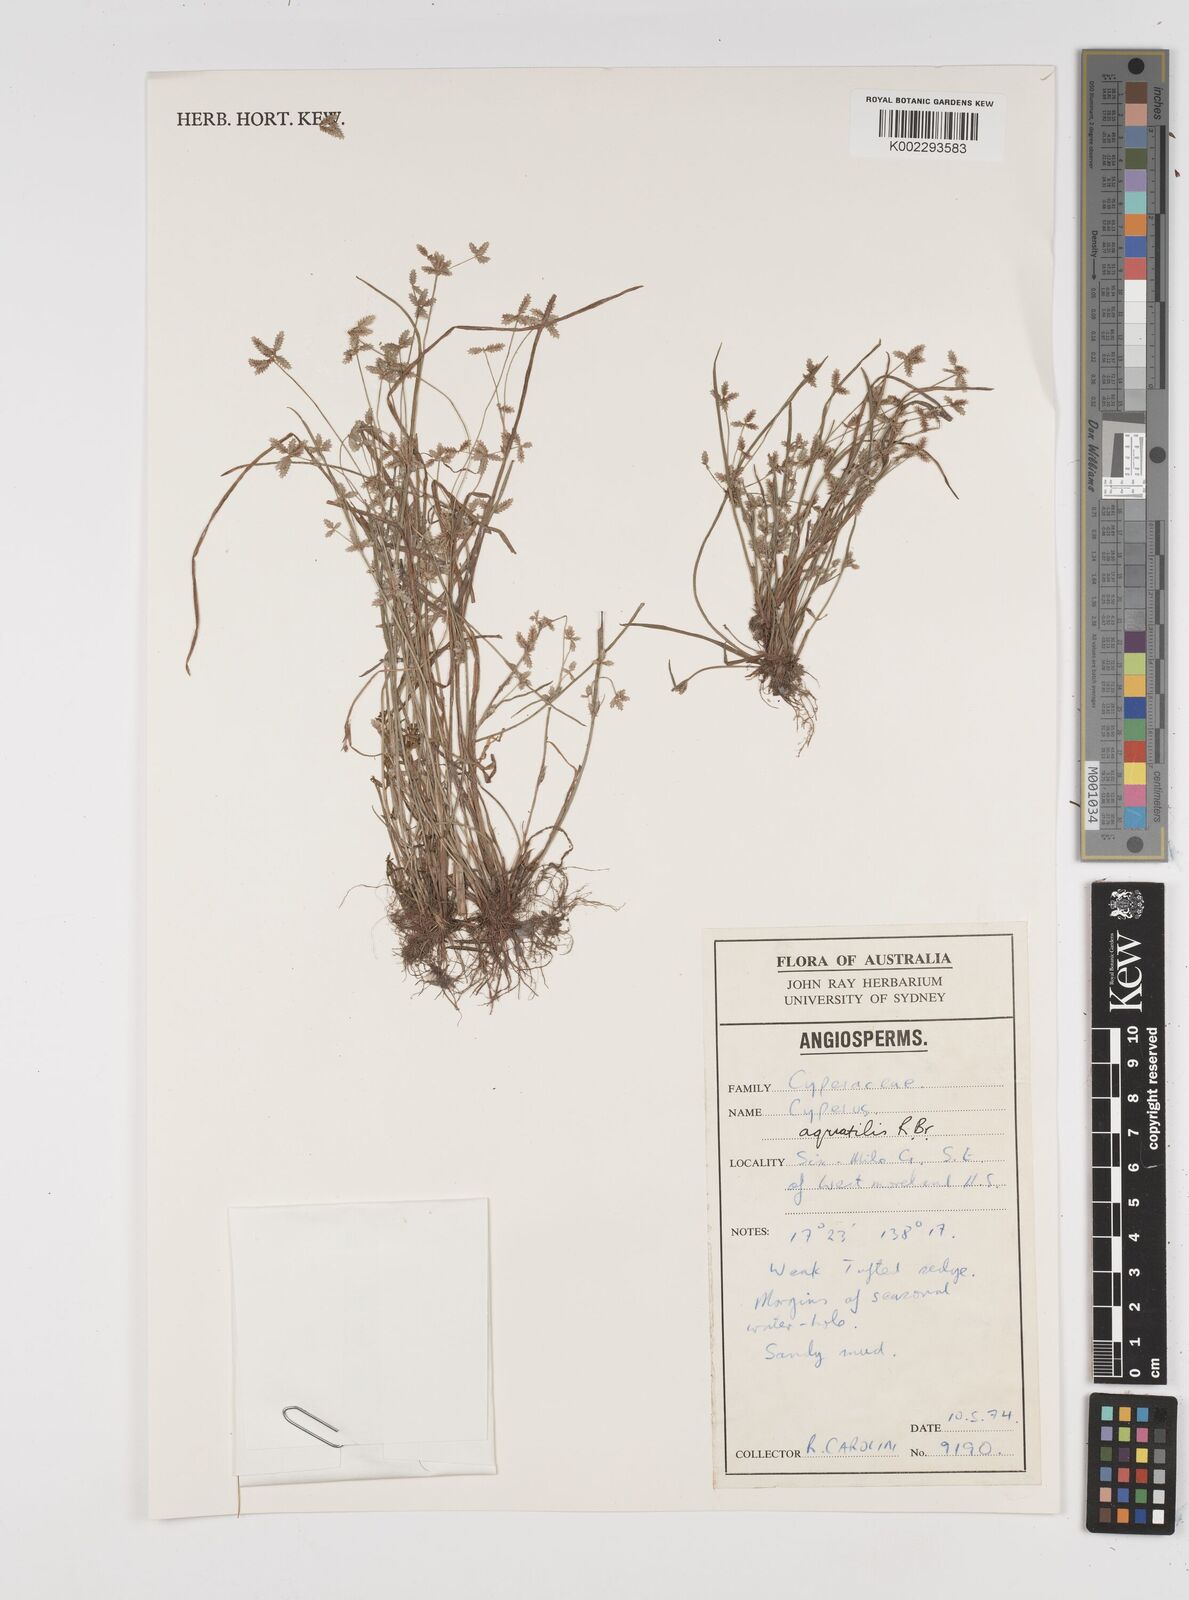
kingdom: Plantae
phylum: Tracheophyta
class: Liliopsida
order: Poales
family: Cyperaceae
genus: Cyperus
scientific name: Cyperus aquatilis
